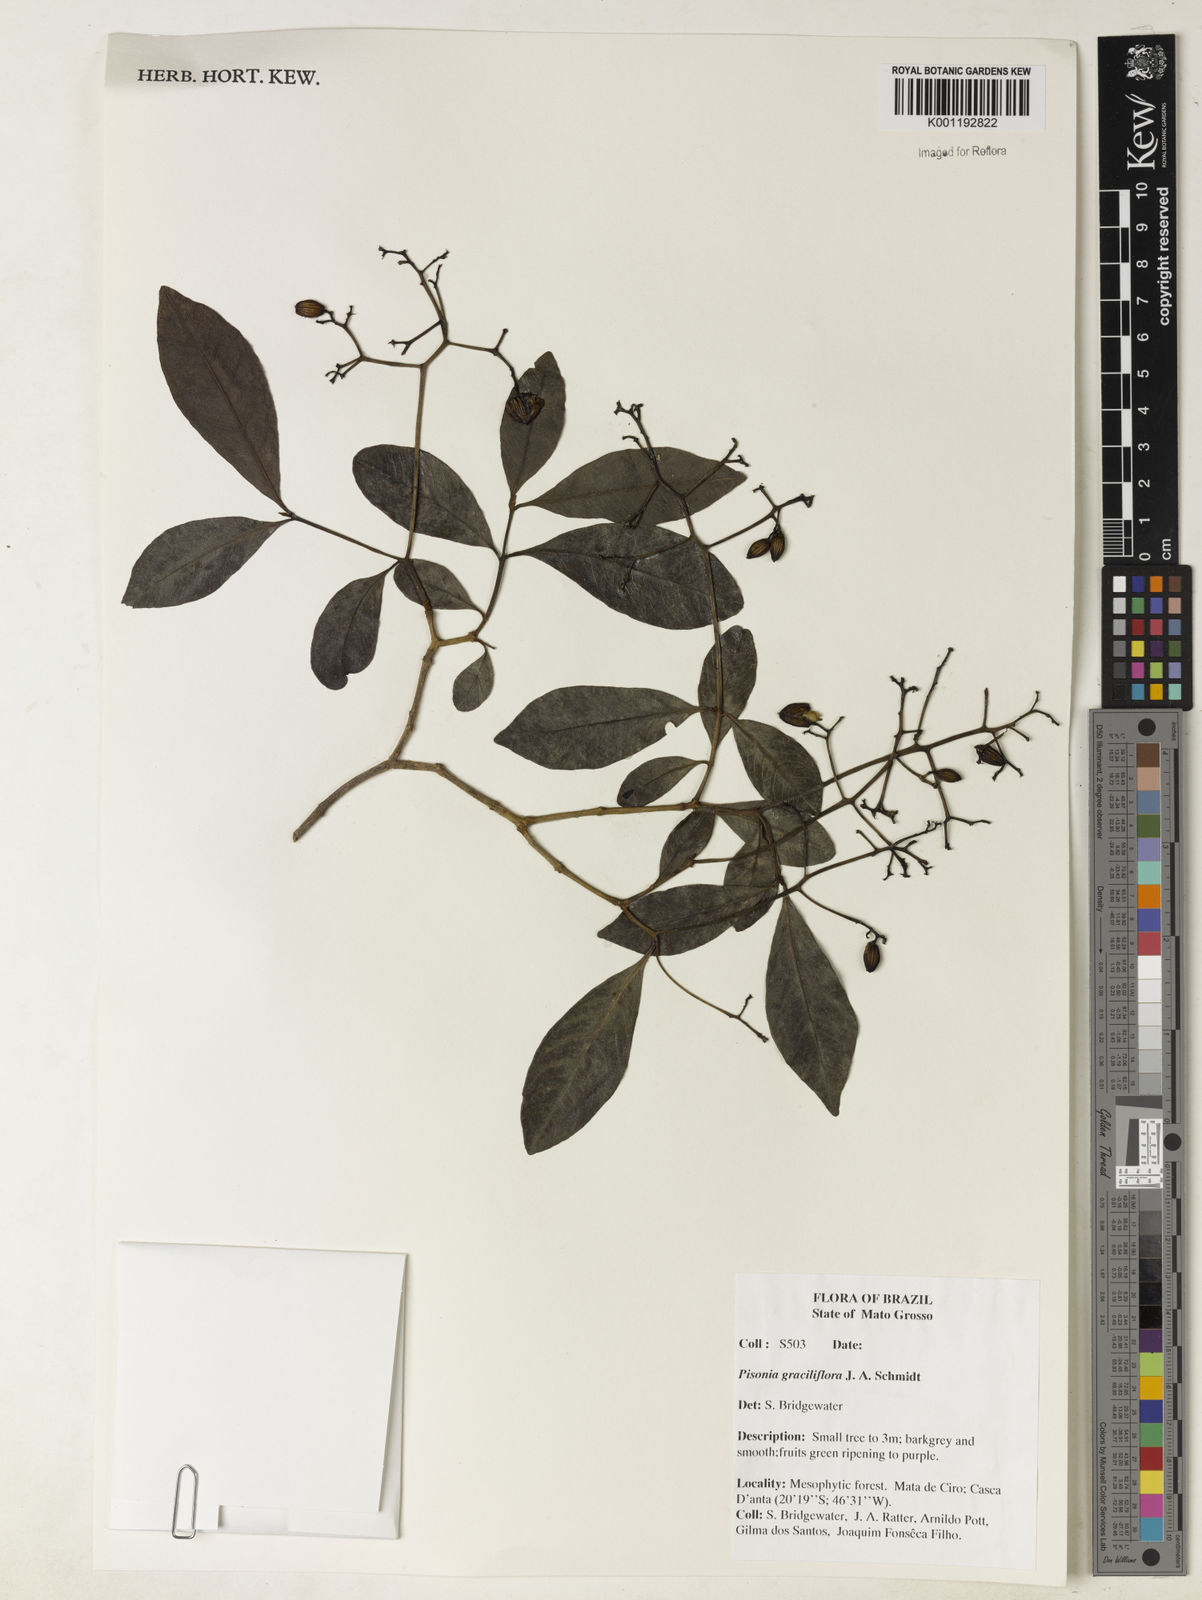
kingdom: Plantae
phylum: Tracheophyta
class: Magnoliopsida
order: Caryophyllales
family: Nyctaginaceae
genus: Guapira
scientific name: Guapira graciliflora
